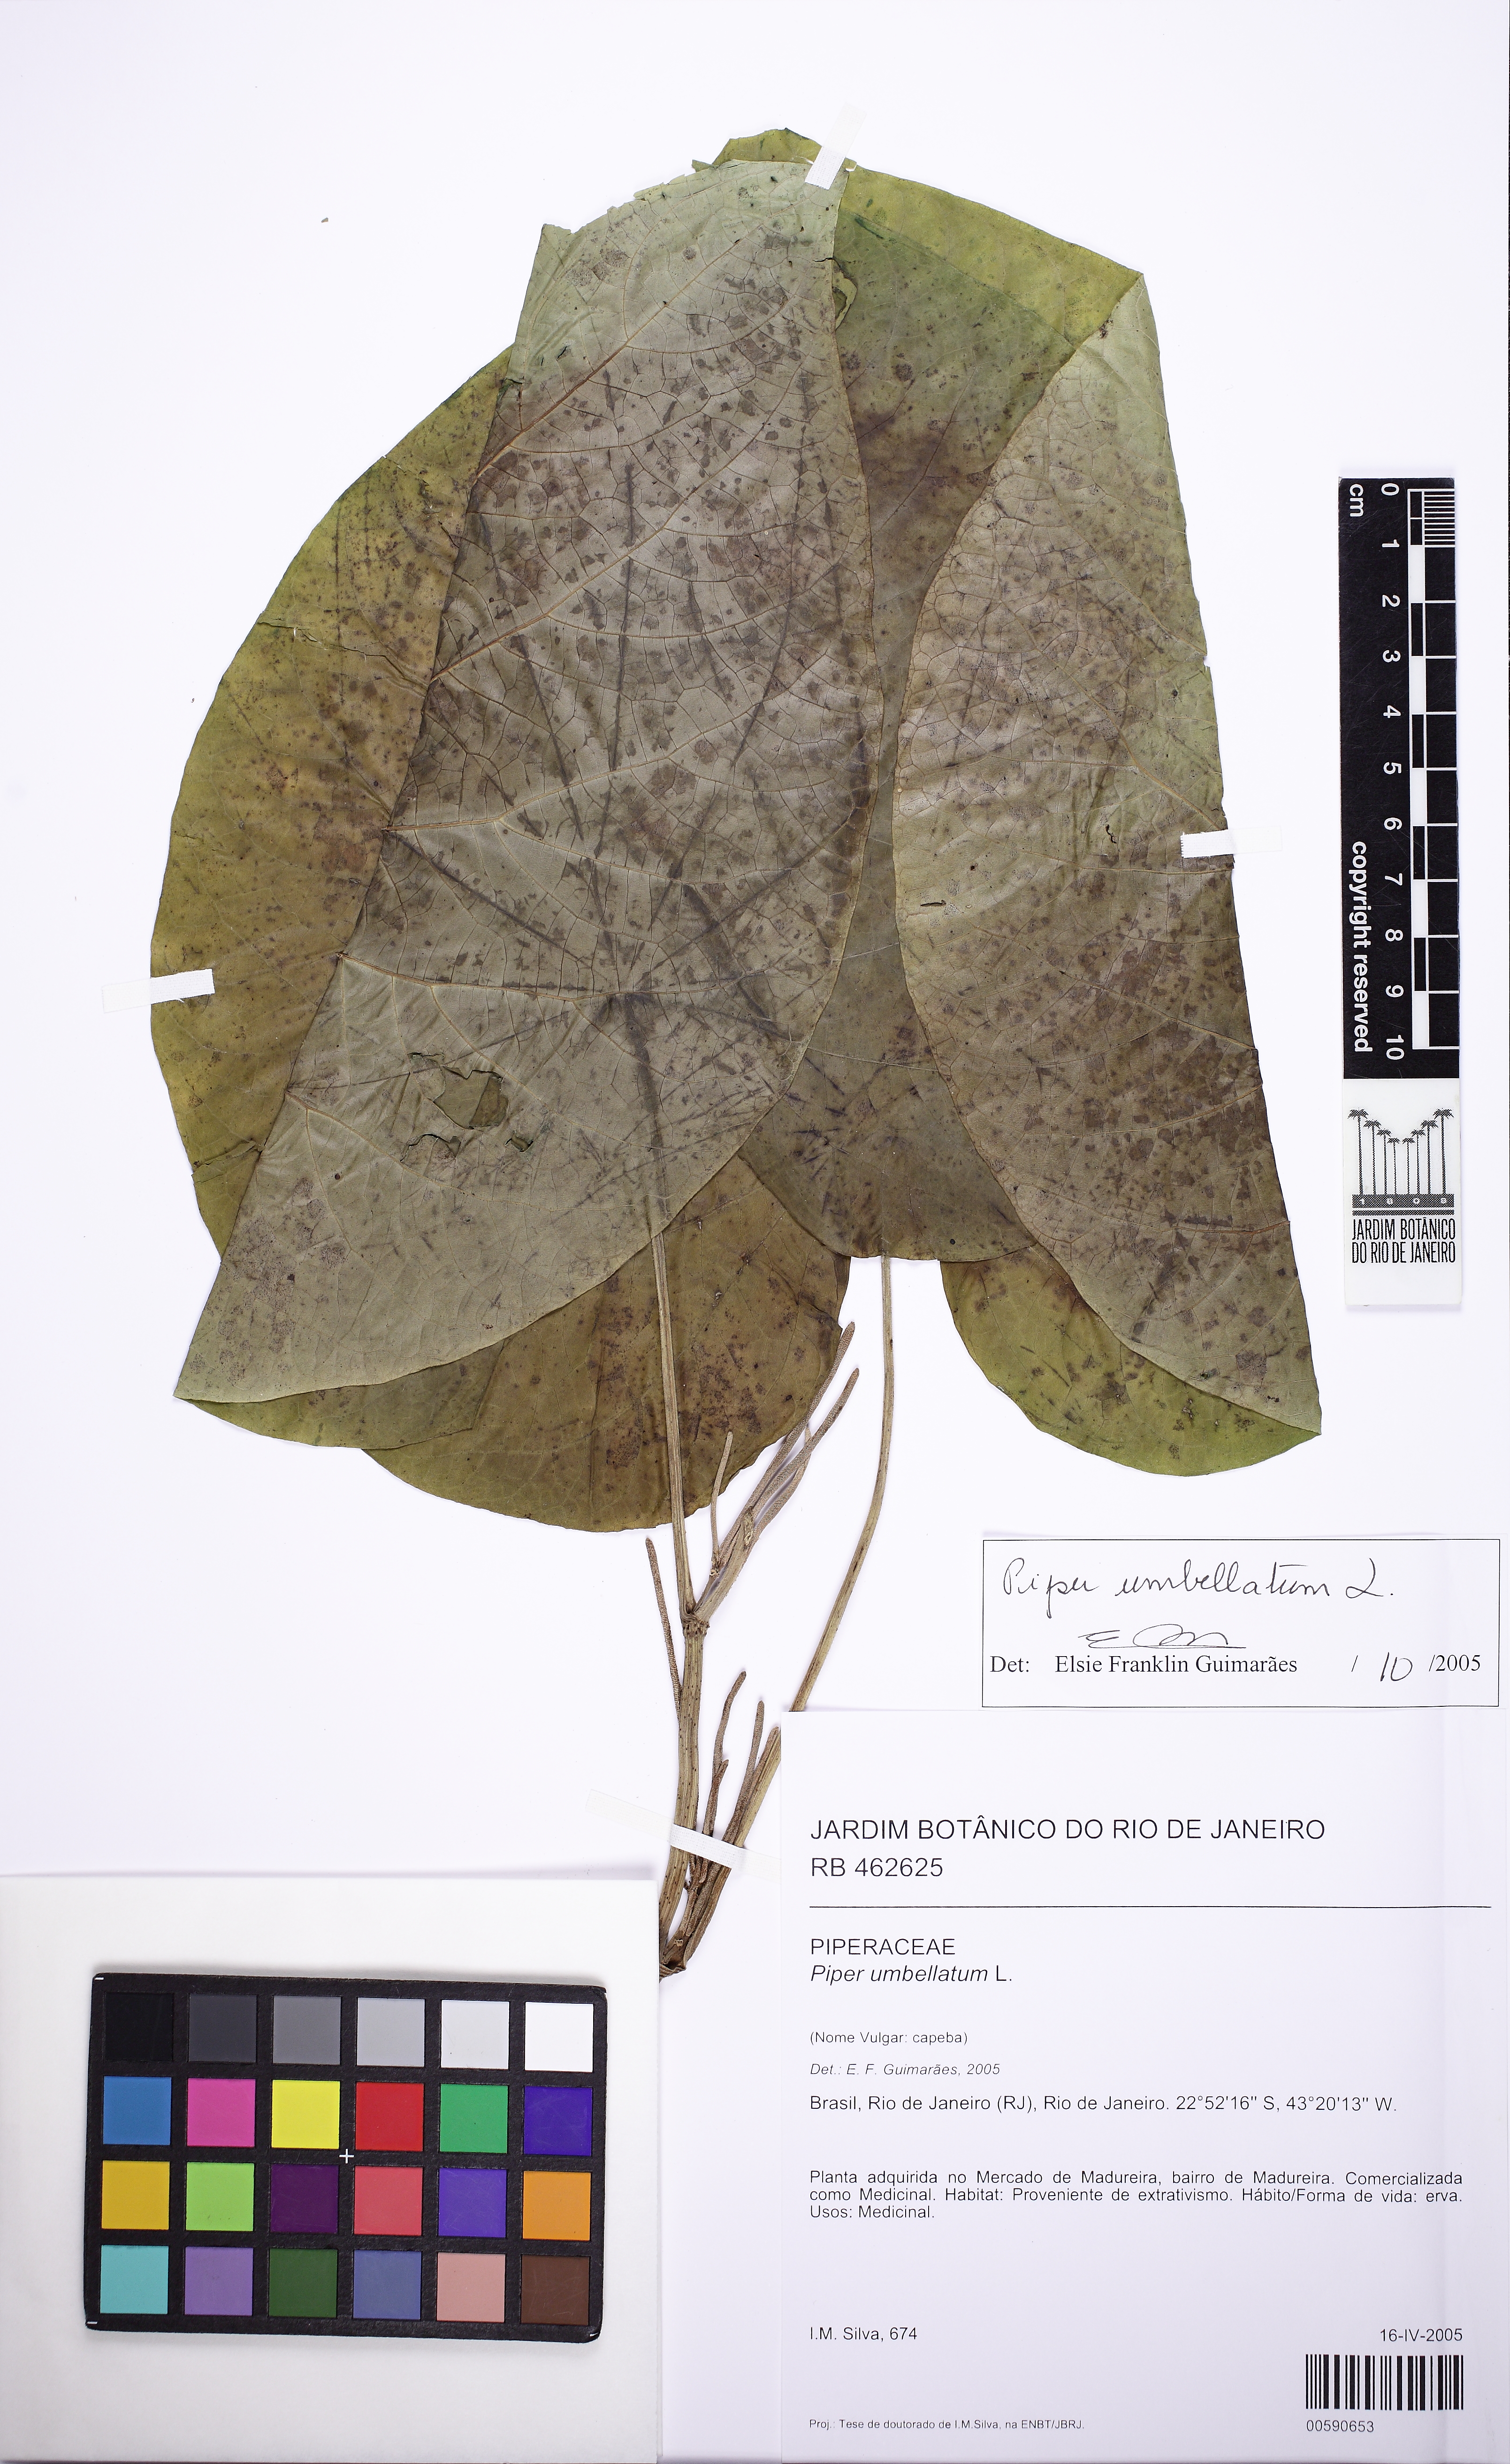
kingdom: Plantae
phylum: Tracheophyta
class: Magnoliopsida
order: Piperales
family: Piperaceae
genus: Piper
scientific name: Piper umbellatum
